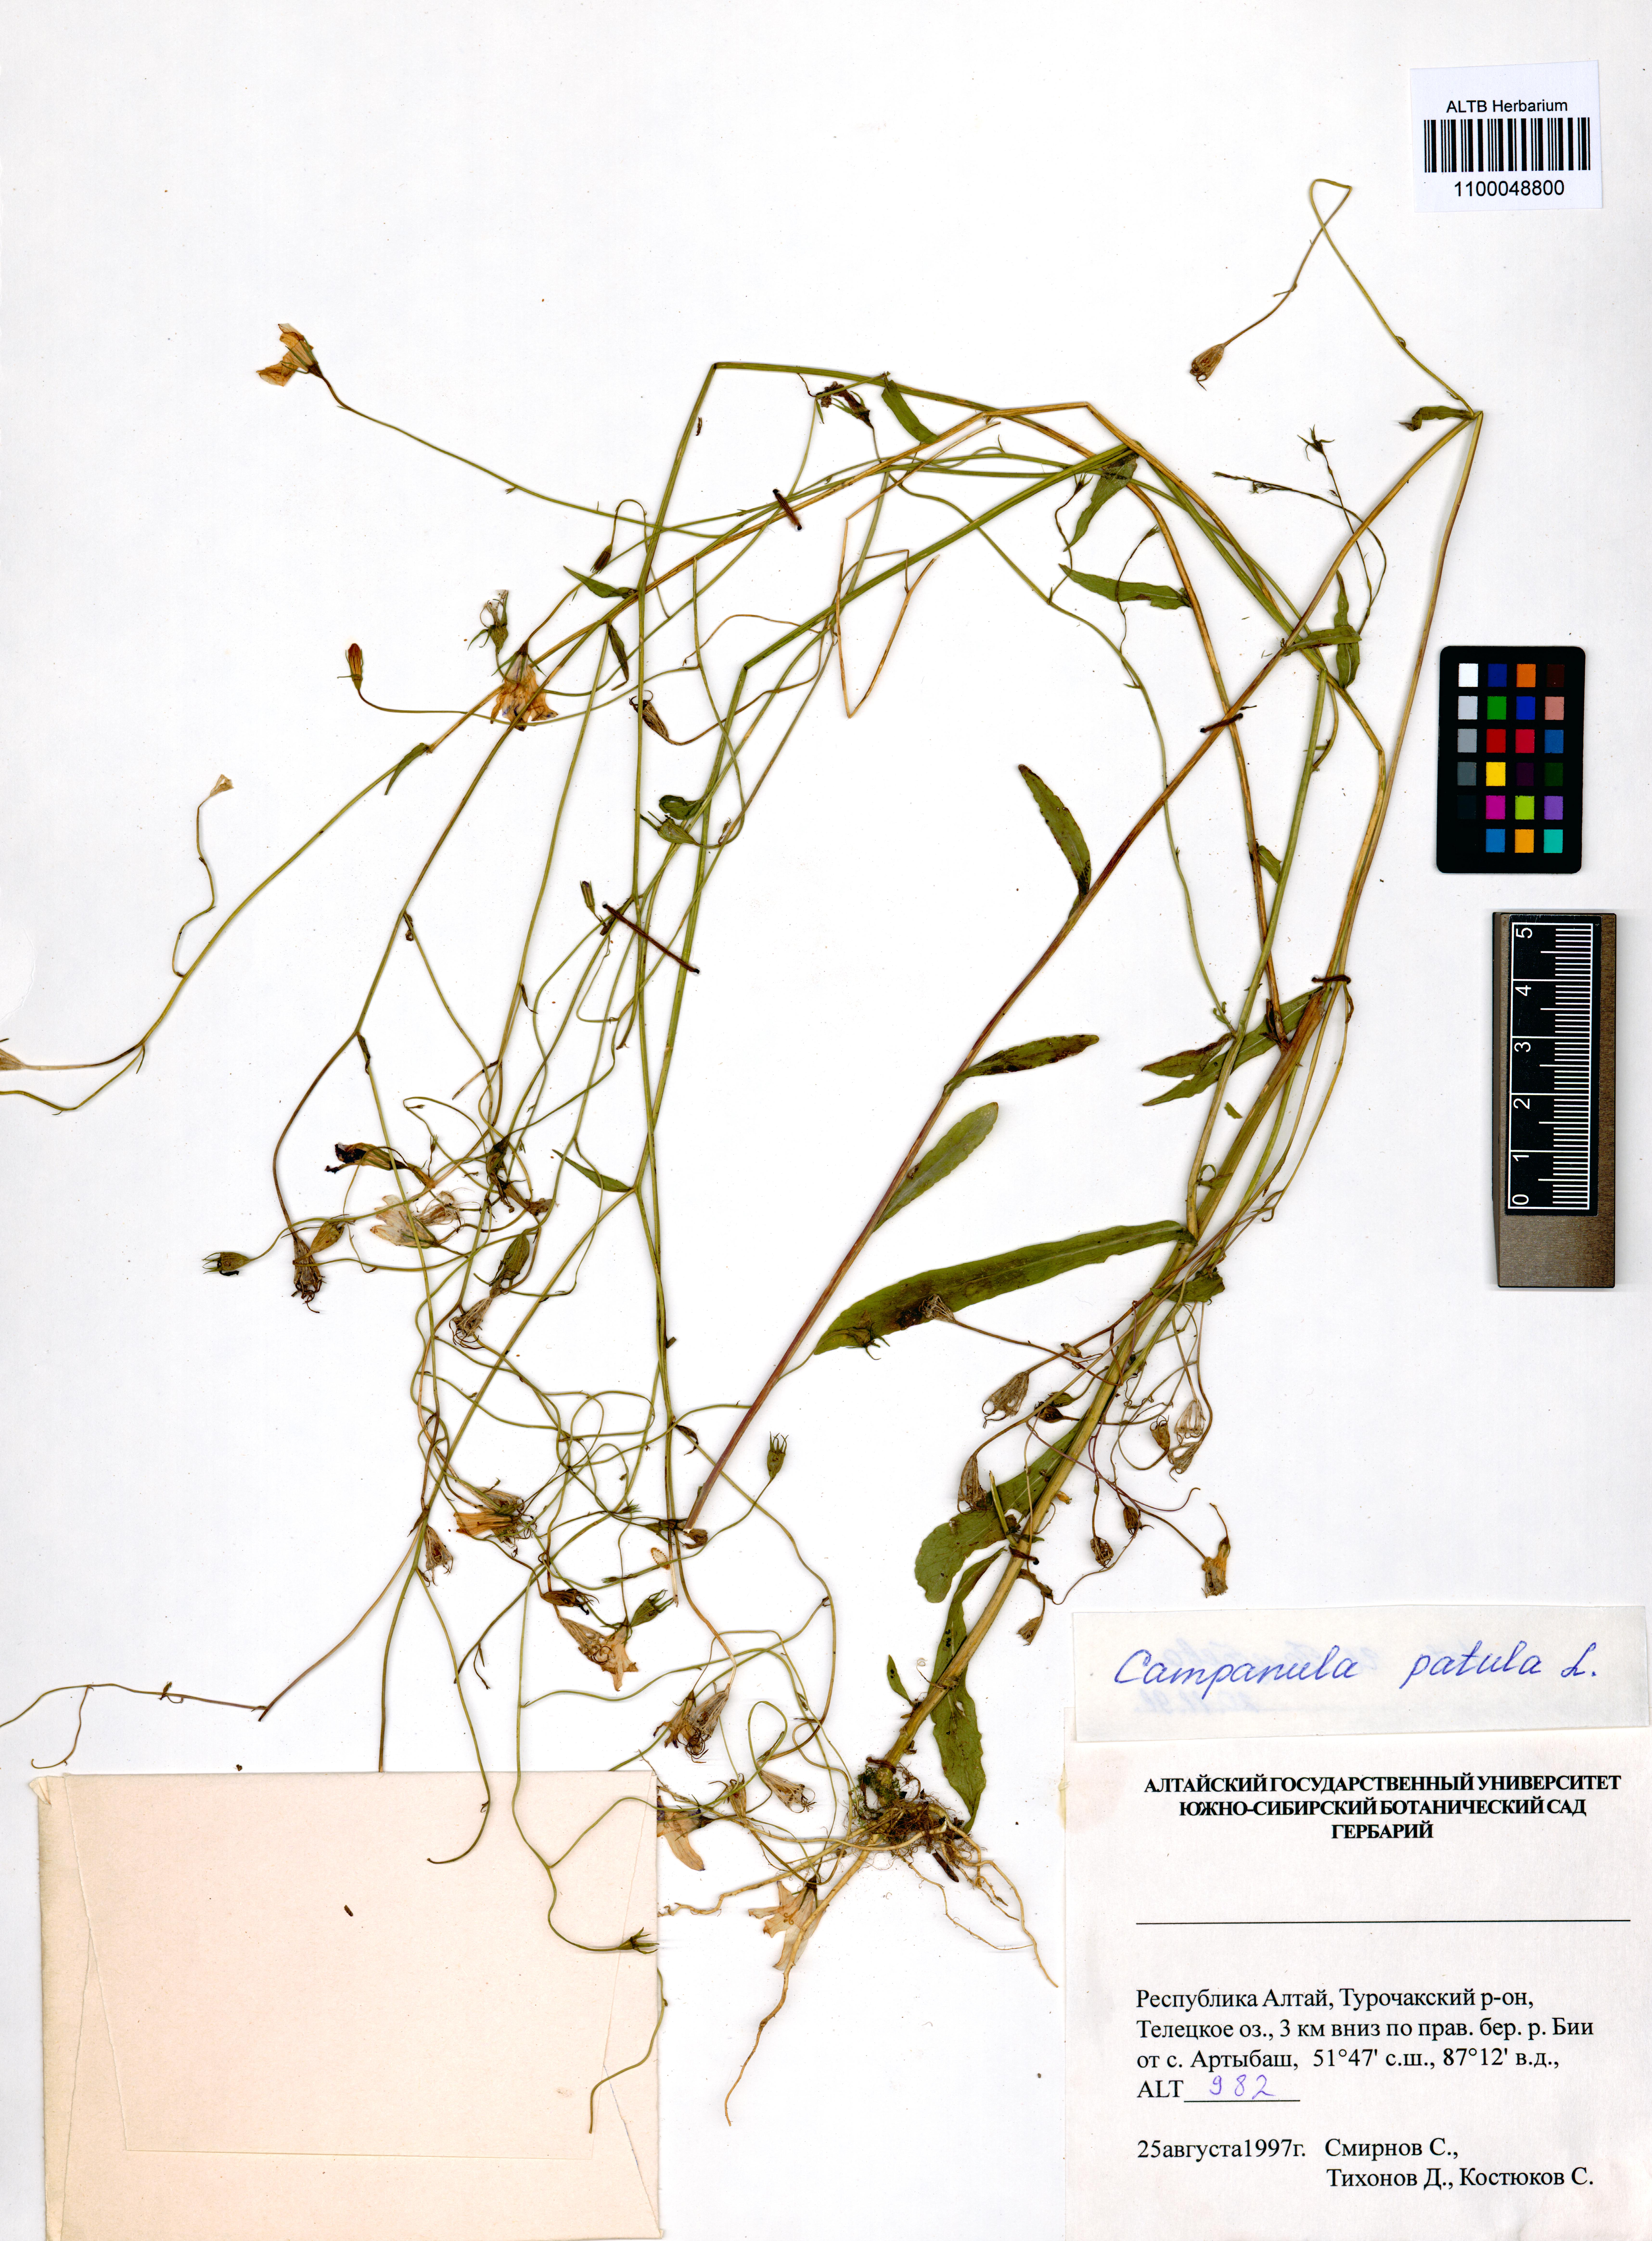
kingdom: Plantae
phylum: Tracheophyta
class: Magnoliopsida
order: Asterales
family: Campanulaceae
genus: Campanula
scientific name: Campanula patula
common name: Spreading bellflower
